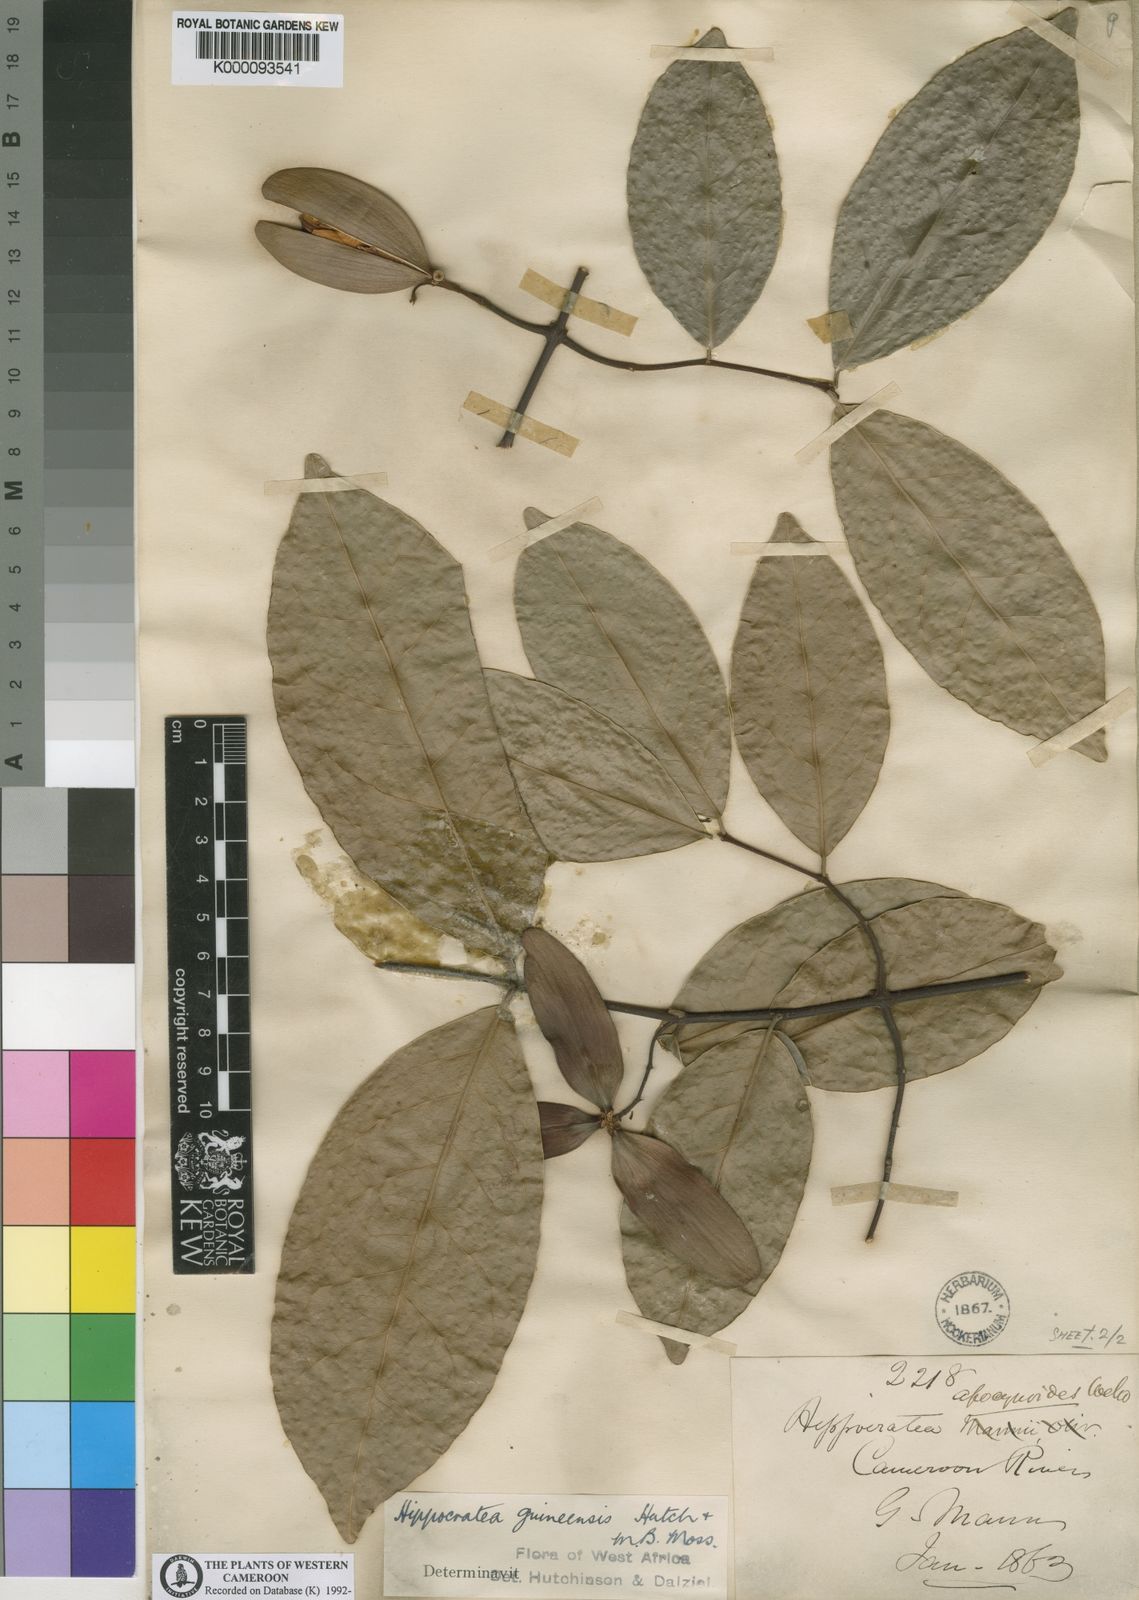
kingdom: Plantae
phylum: Tracheophyta
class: Magnoliopsida
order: Celastrales
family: Celastraceae
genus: Loeseneriella
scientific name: Loeseneriella
